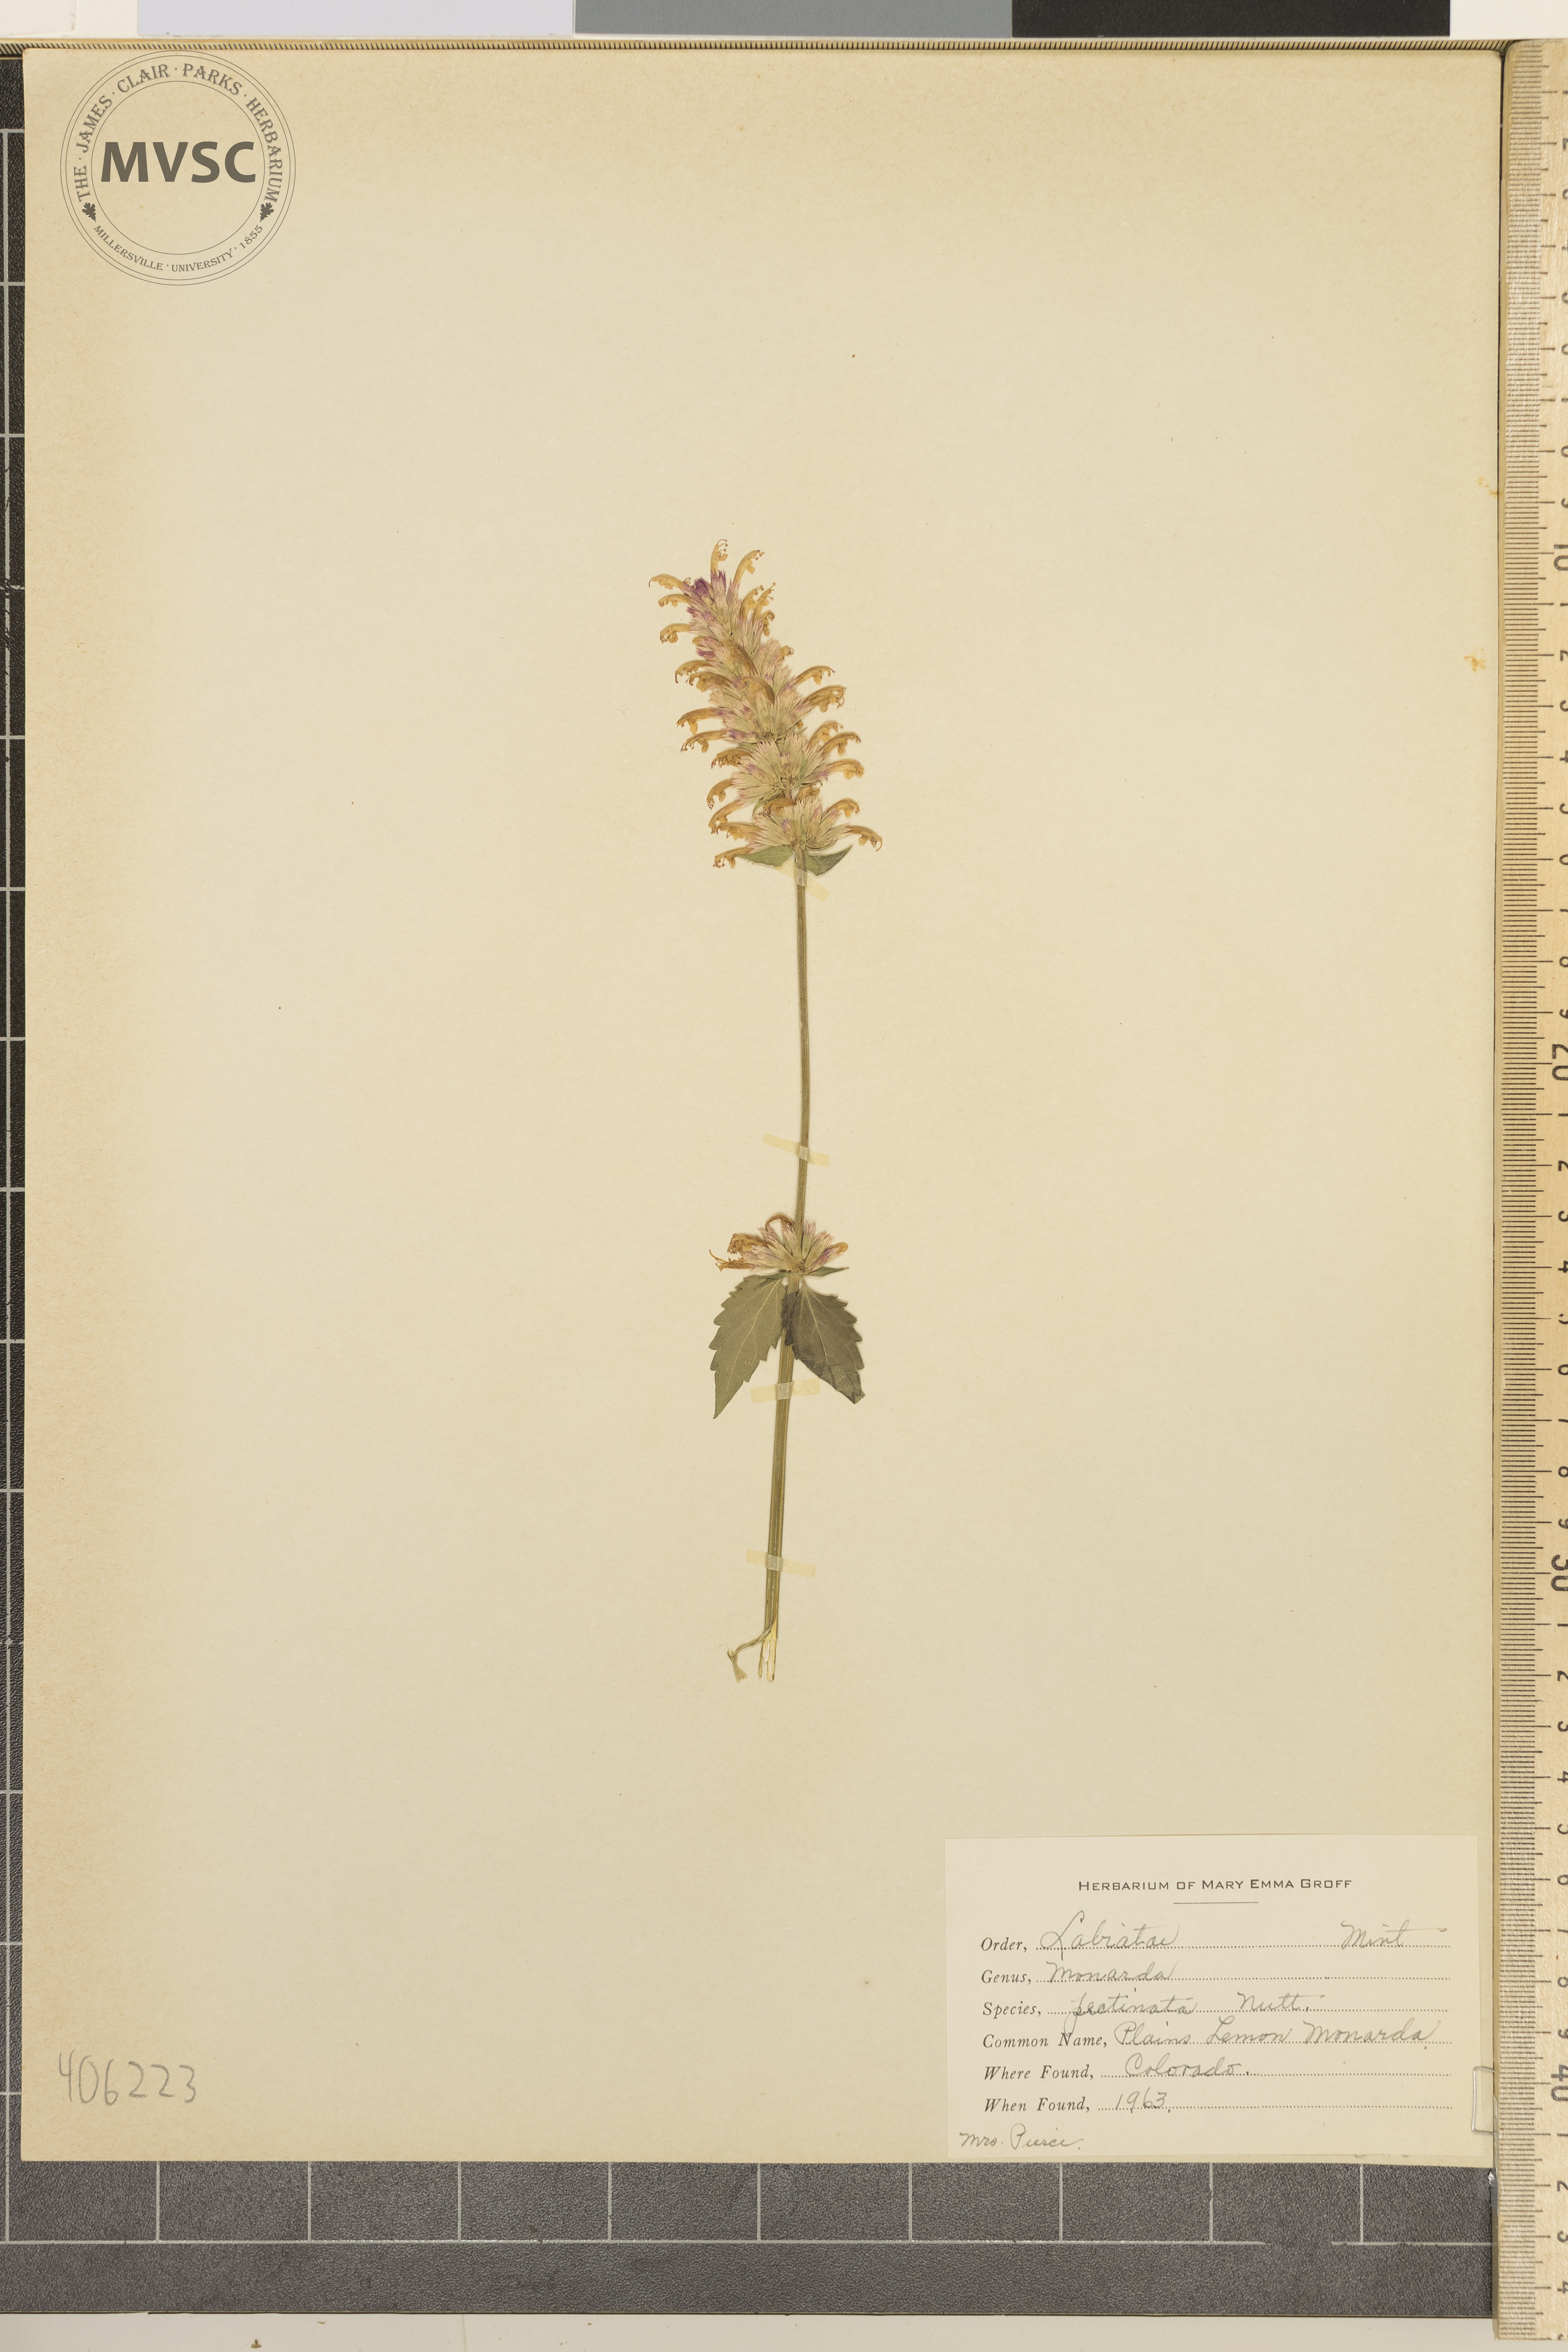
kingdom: Plantae
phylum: Tracheophyta
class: Magnoliopsida
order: Lamiales
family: Lamiaceae
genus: Monarda
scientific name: Monarda pectinata
